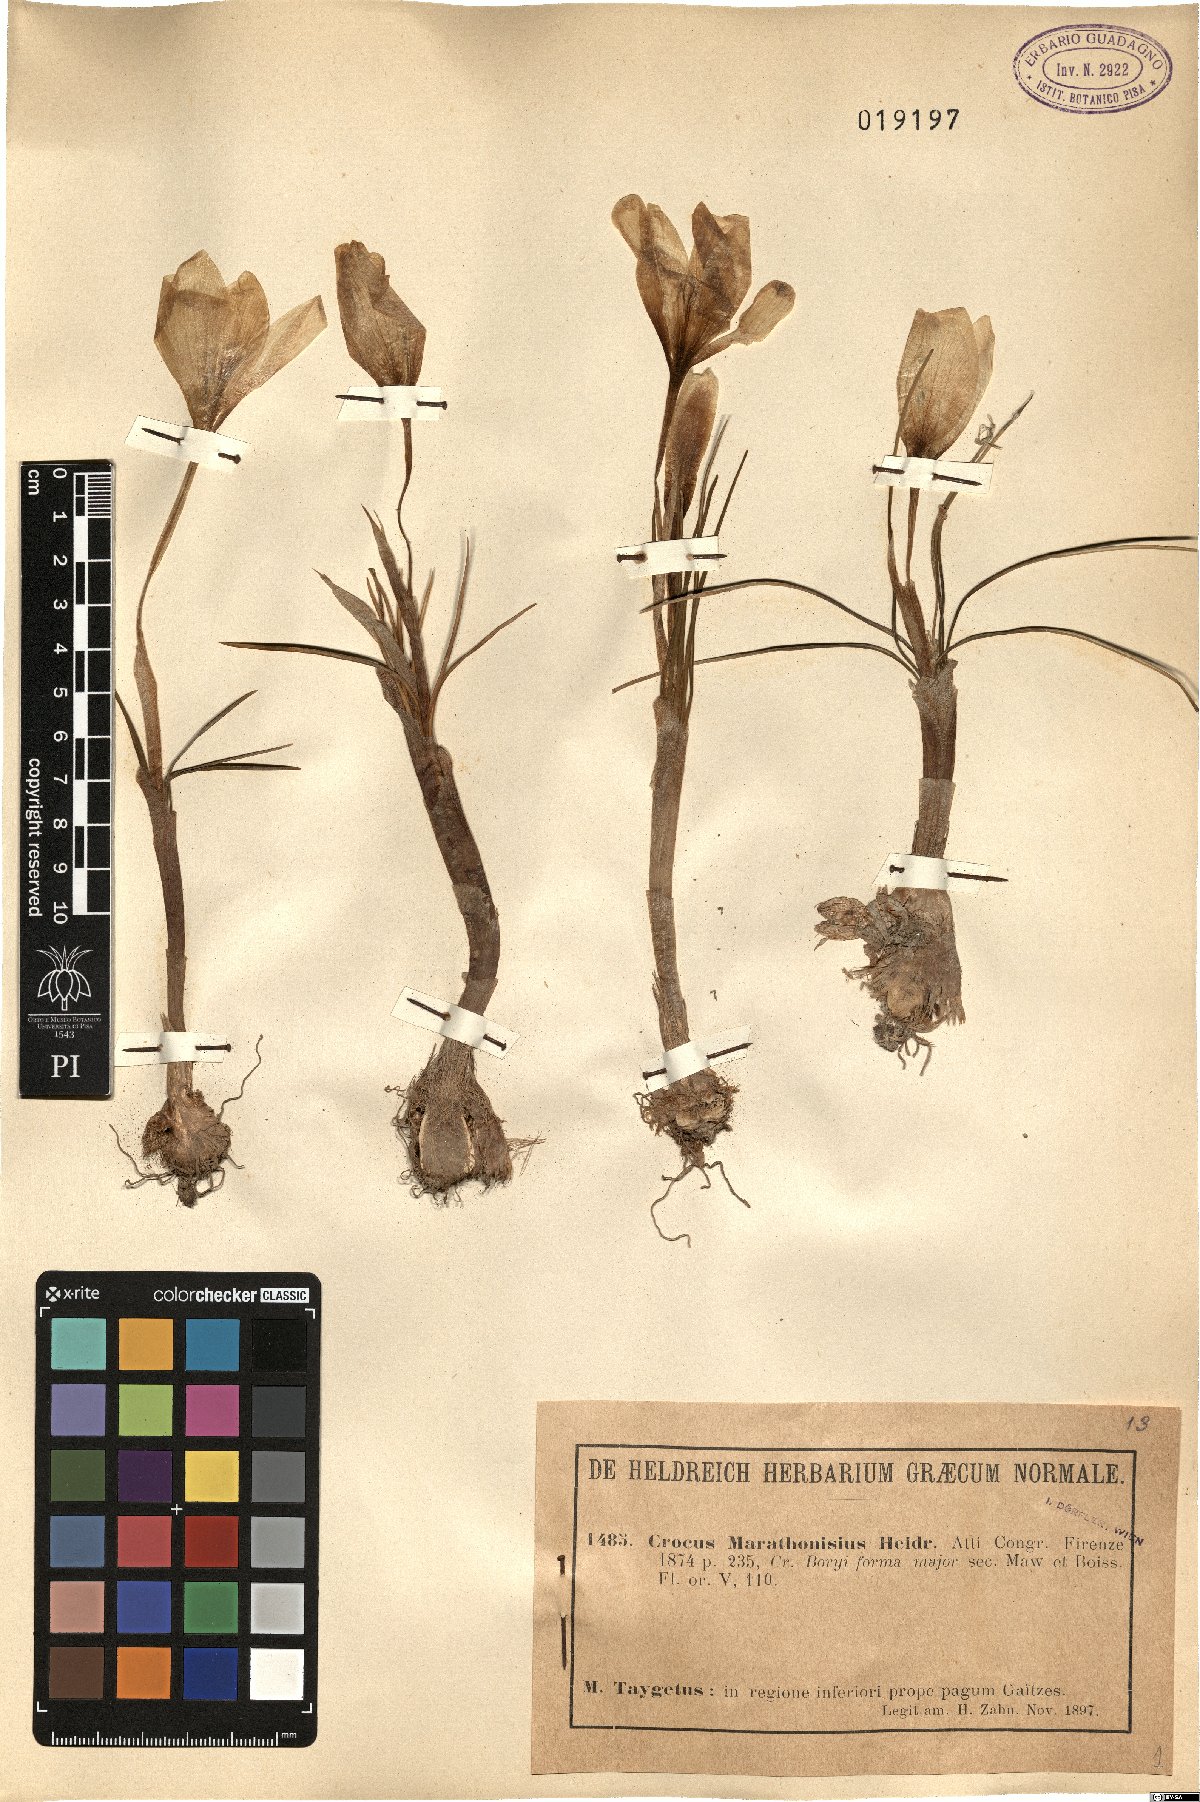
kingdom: Plantae
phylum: Tracheophyta
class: Liliopsida
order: Asparagales
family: Iridaceae
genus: Crocus
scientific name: Crocus boryi
